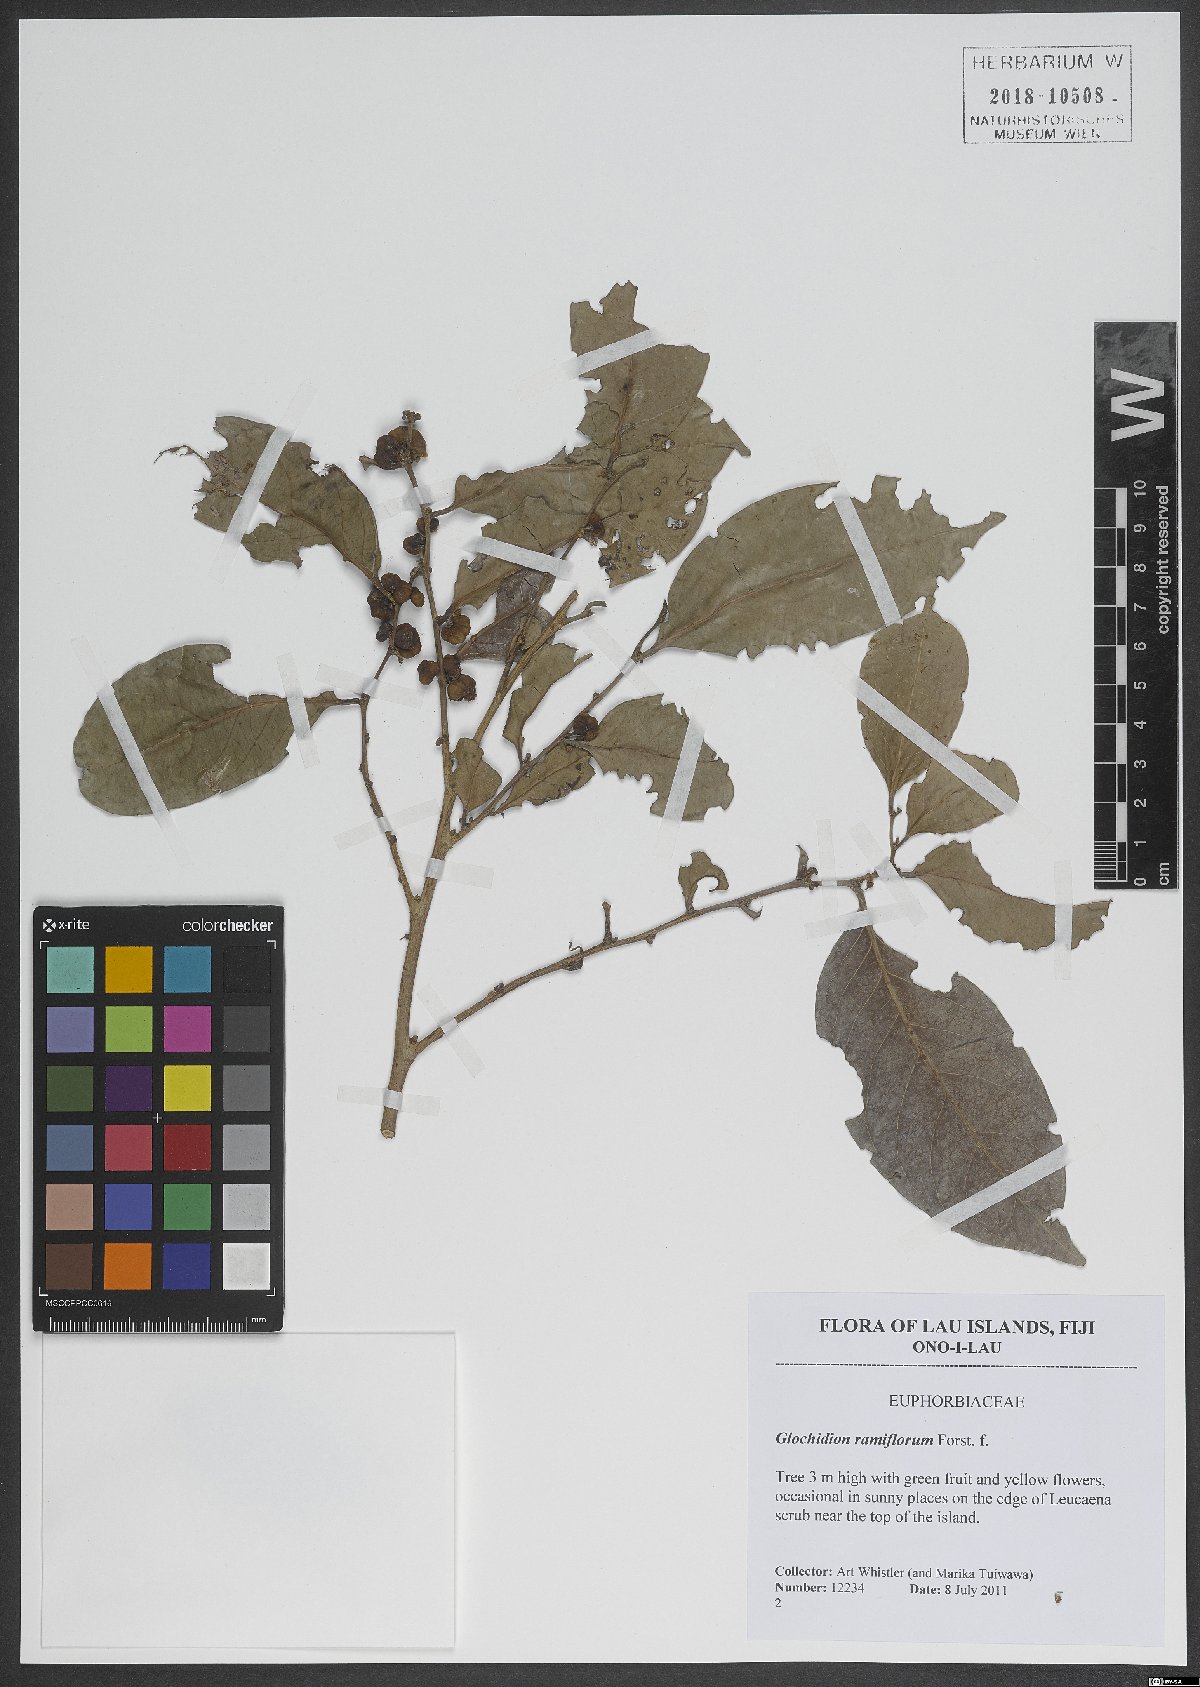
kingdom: Plantae
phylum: Tracheophyta
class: Magnoliopsida
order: Malpighiales
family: Phyllanthaceae
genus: Glochidion
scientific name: Glochidion ramiflorum
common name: Masame
